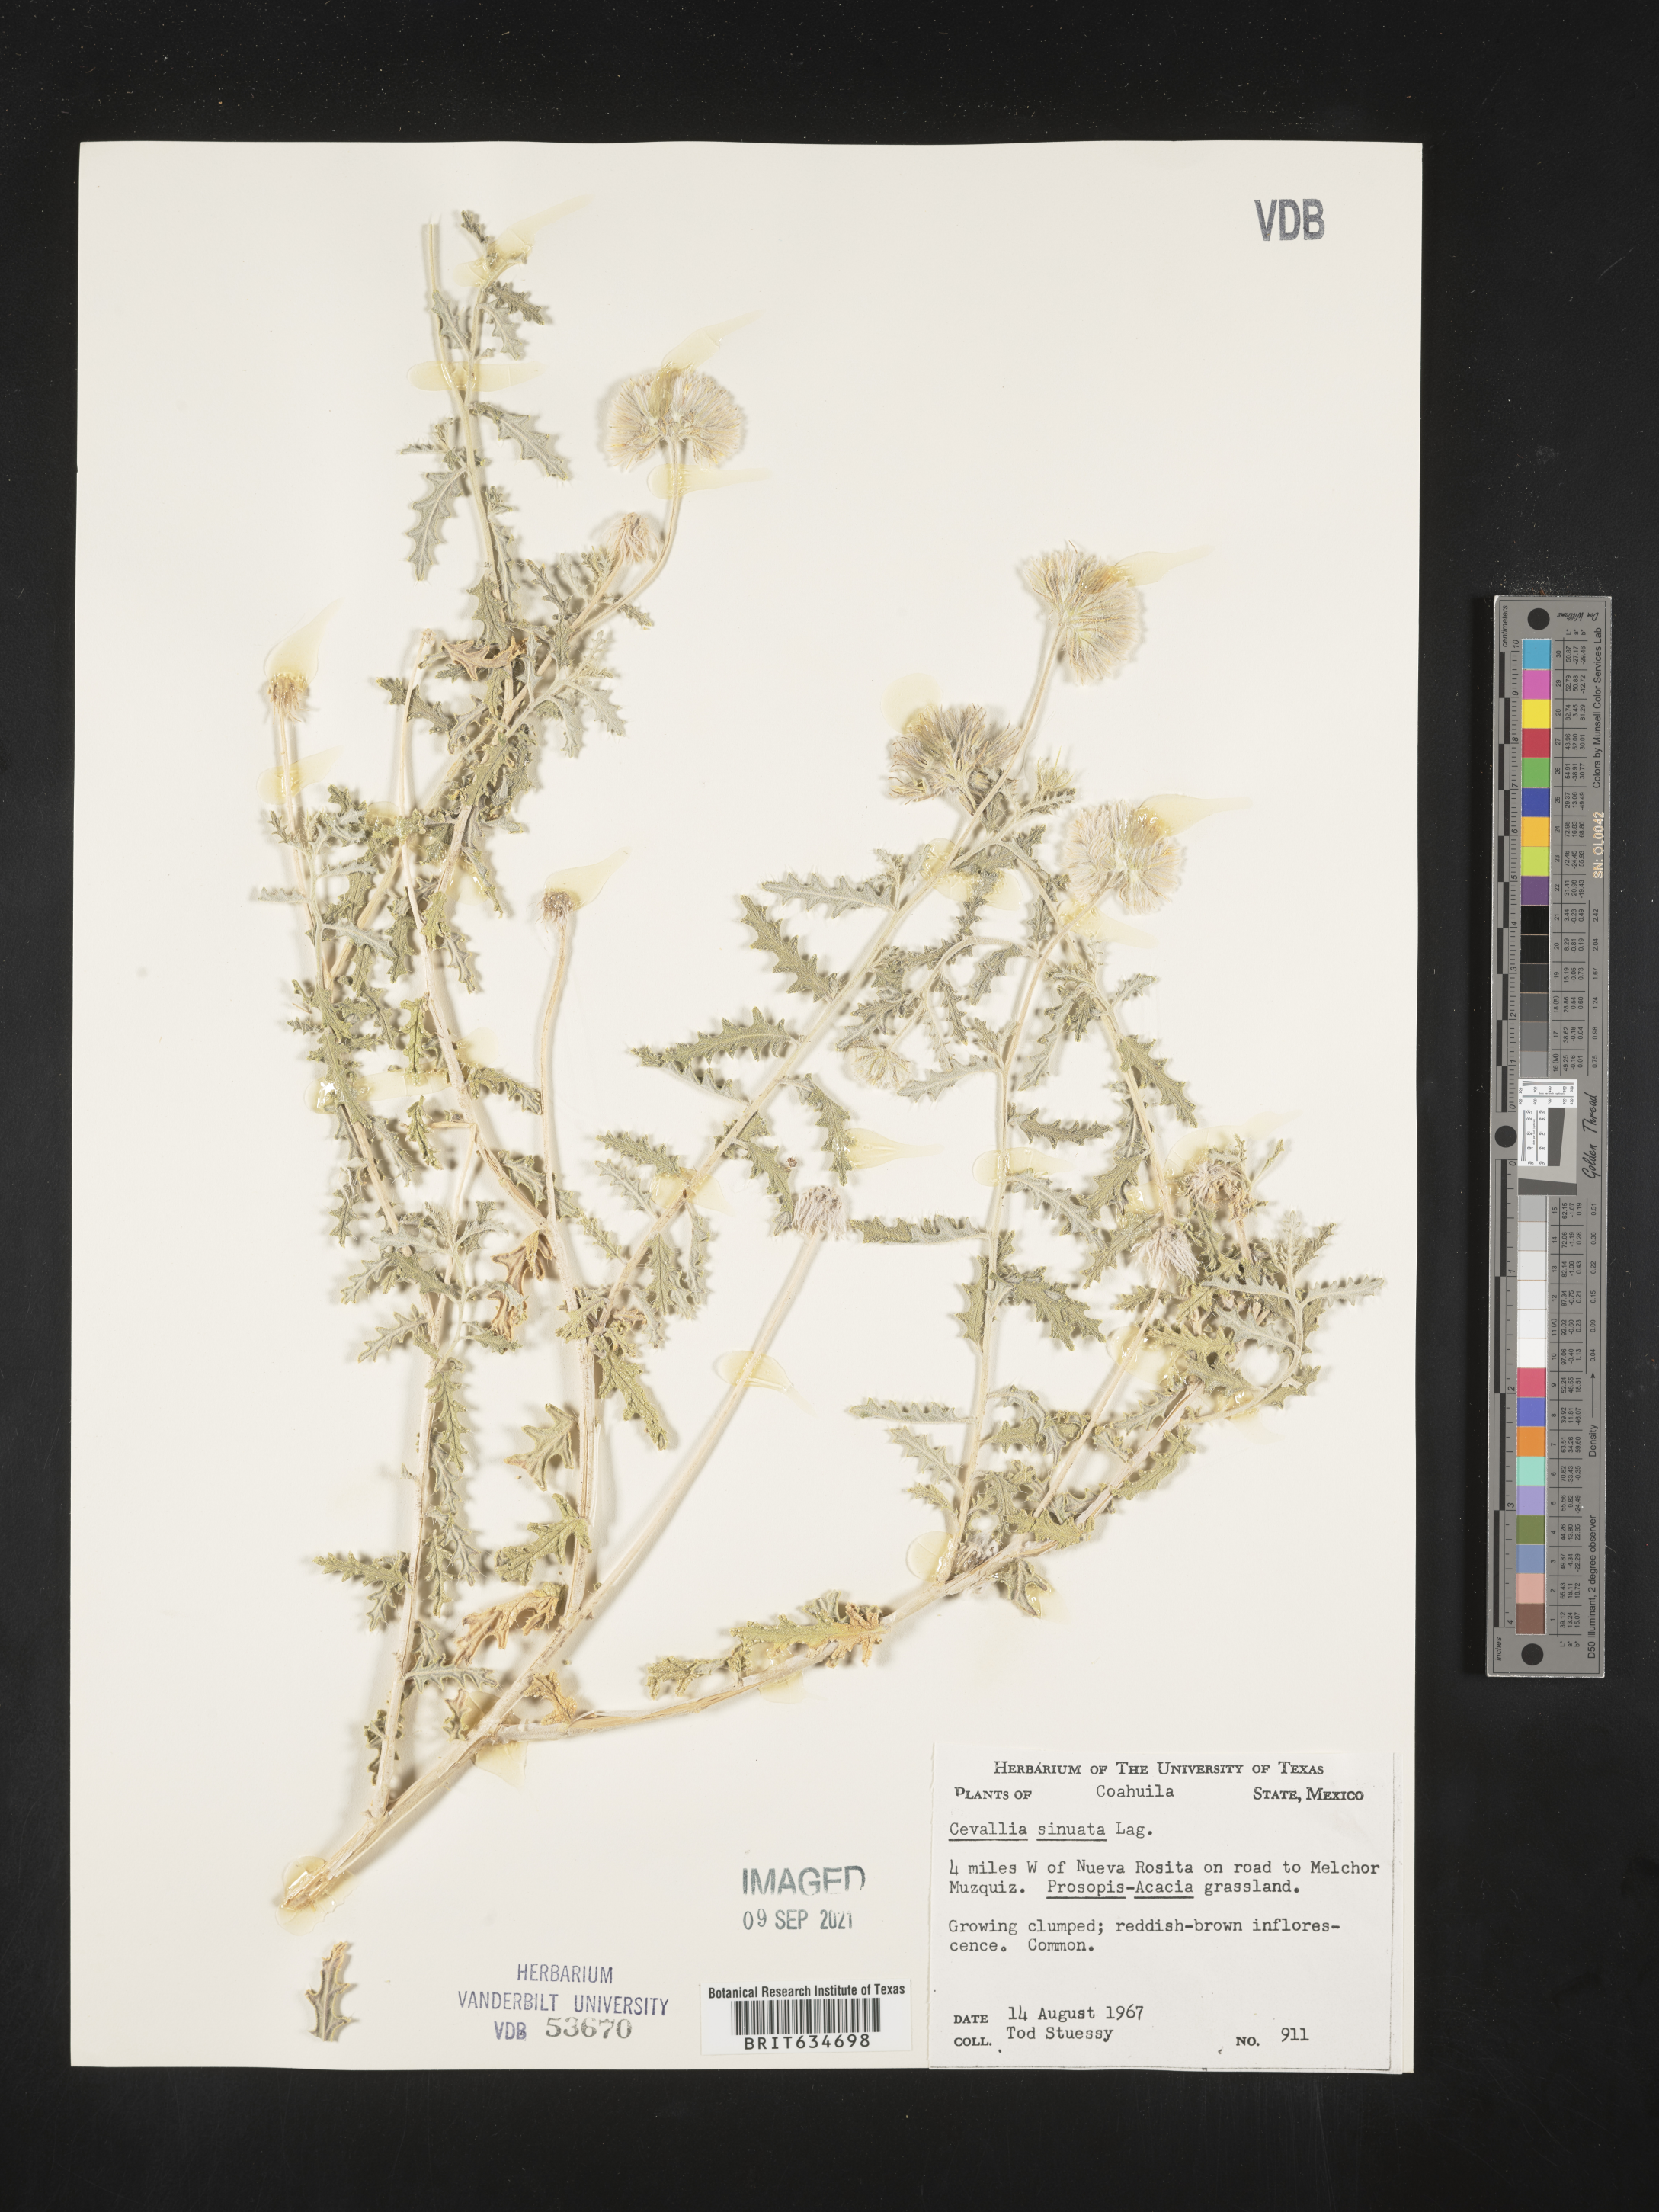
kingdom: Plantae
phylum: Tracheophyta
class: Magnoliopsida
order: Cornales
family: Loasaceae
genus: Cevallia
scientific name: Cevallia
